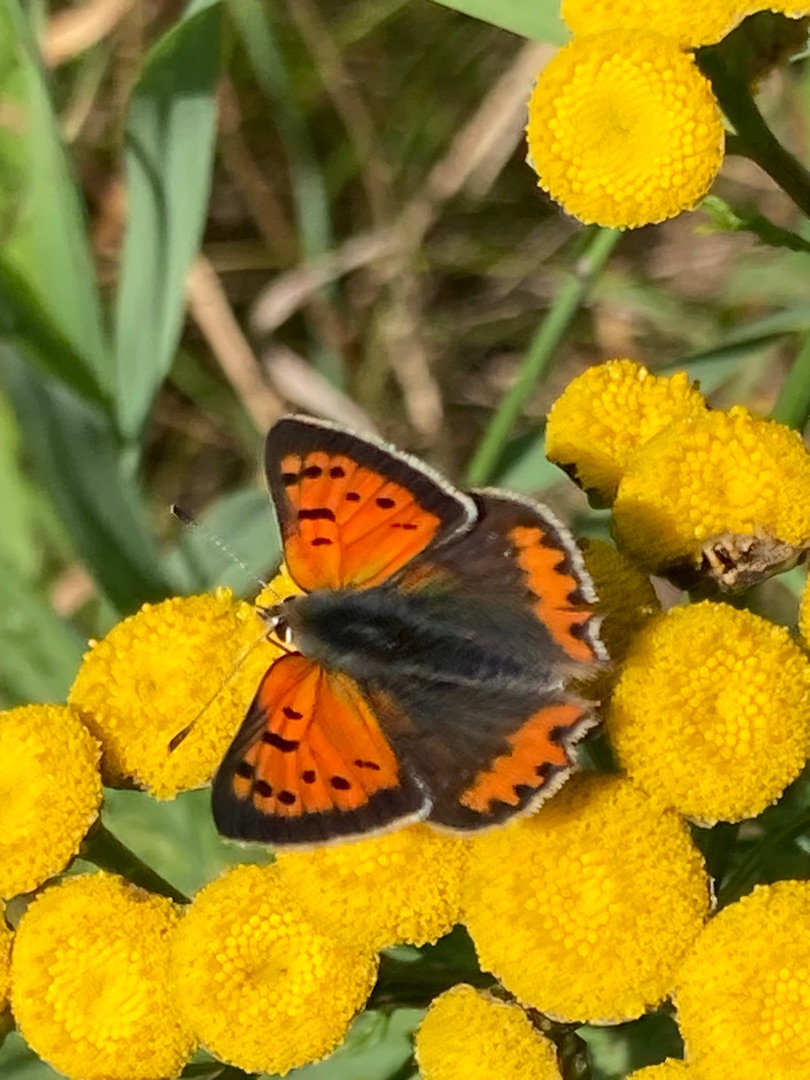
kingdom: Animalia
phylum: Arthropoda
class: Insecta
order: Lepidoptera
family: Lycaenidae
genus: Lycaena
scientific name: Lycaena phlaeas
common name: Lille ildfugl
